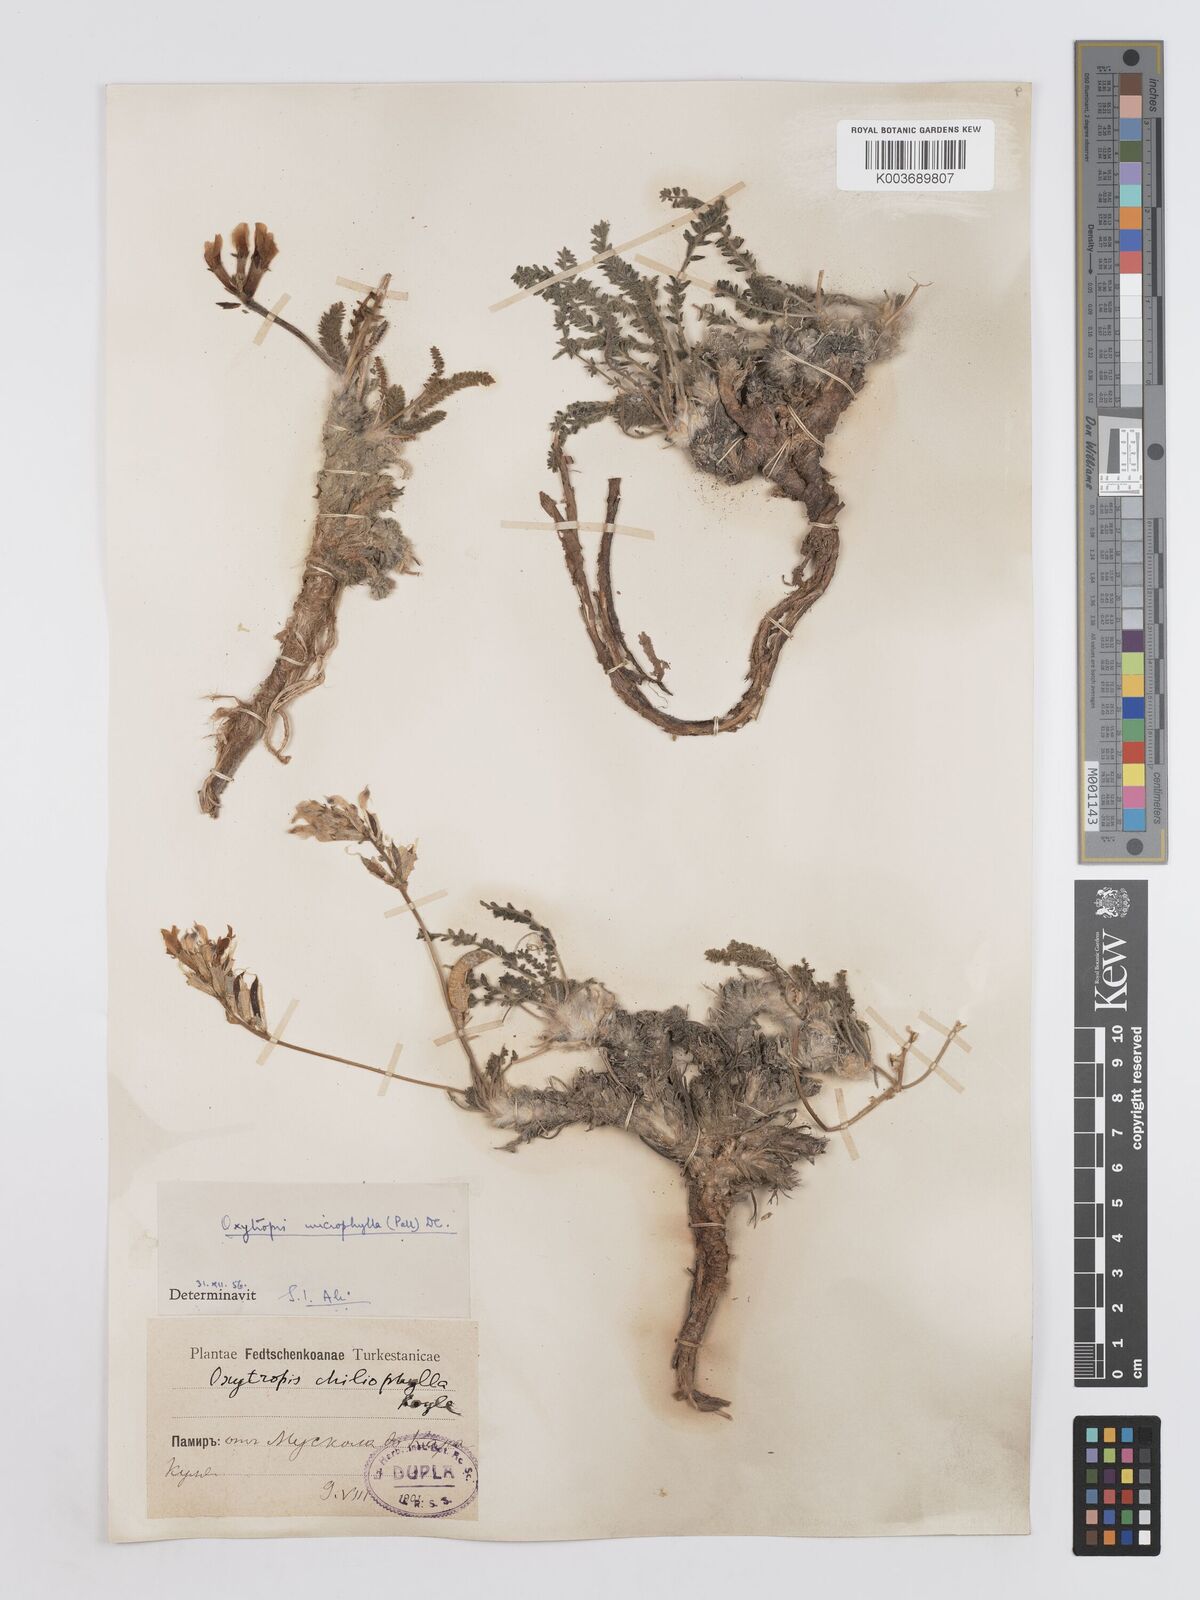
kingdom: Plantae
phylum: Tracheophyta
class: Magnoliopsida
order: Fabales
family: Fabaceae
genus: Oxytropis
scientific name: Oxytropis microphylla
